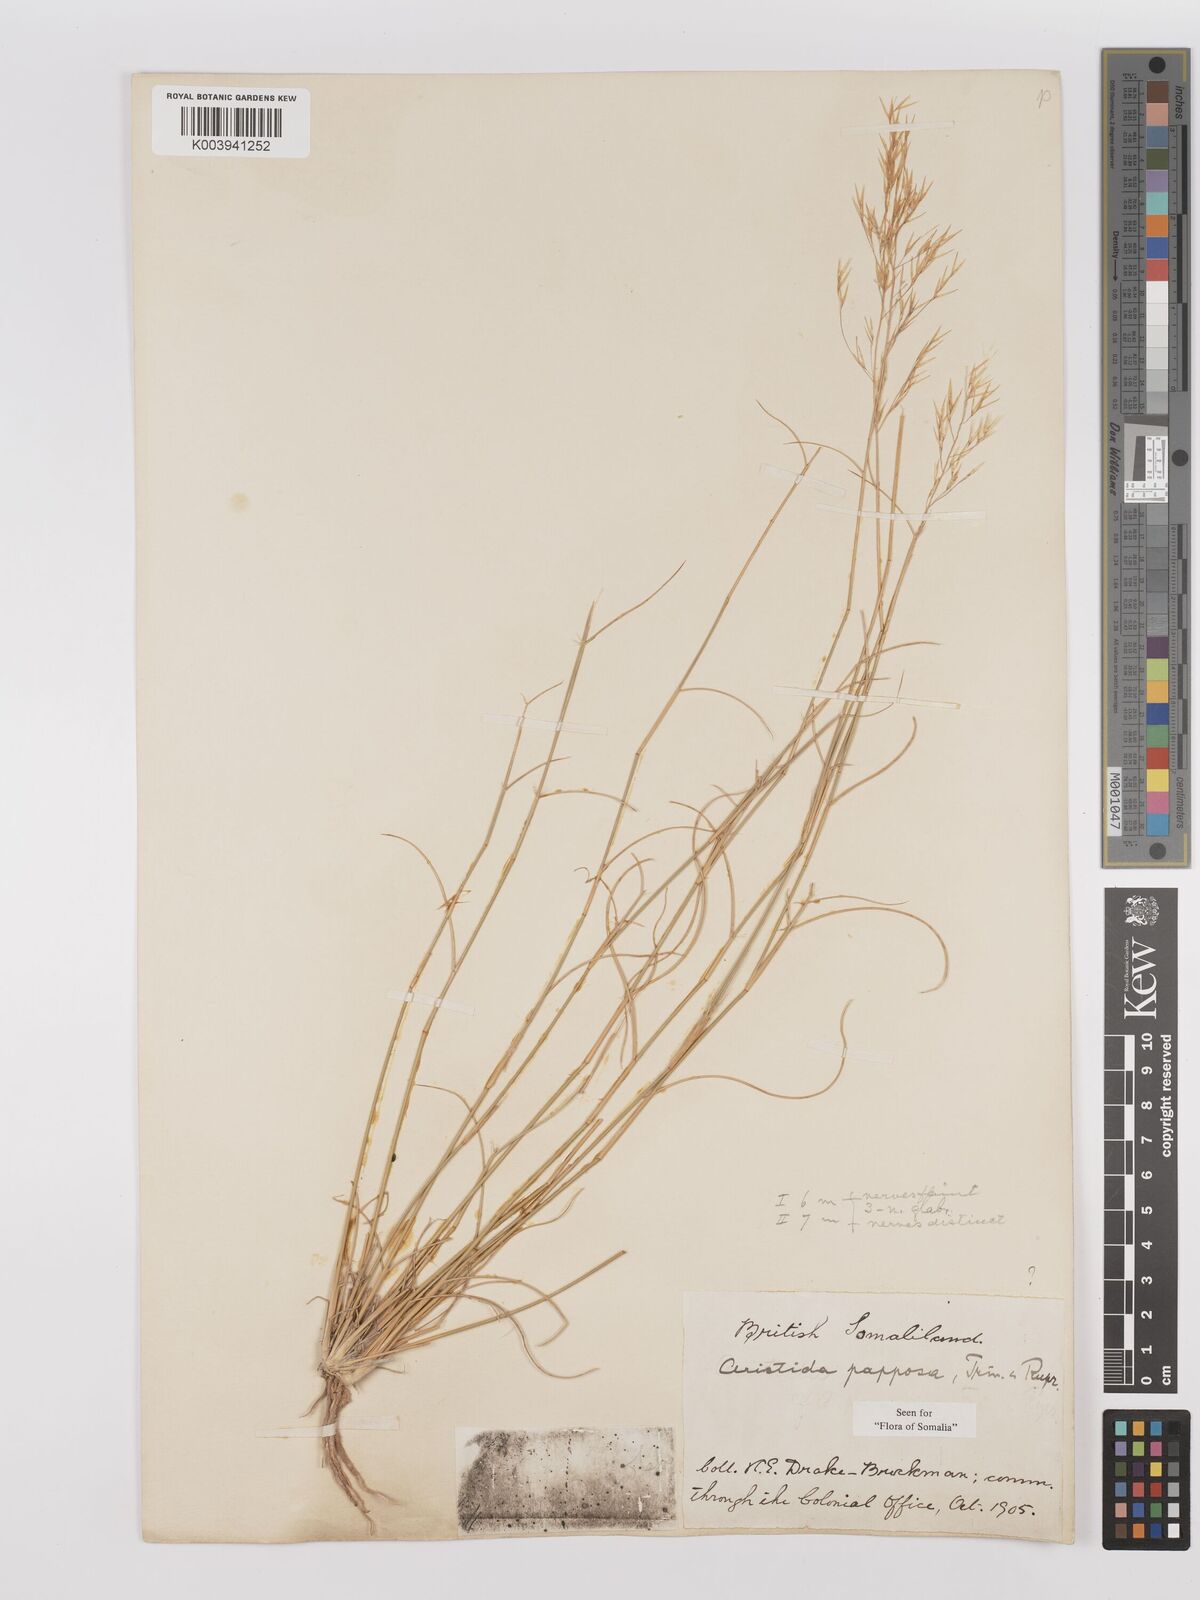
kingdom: Plantae
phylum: Tracheophyta
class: Liliopsida
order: Poales
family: Poaceae
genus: Stipagrostis
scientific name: Stipagrostis uniplumis
